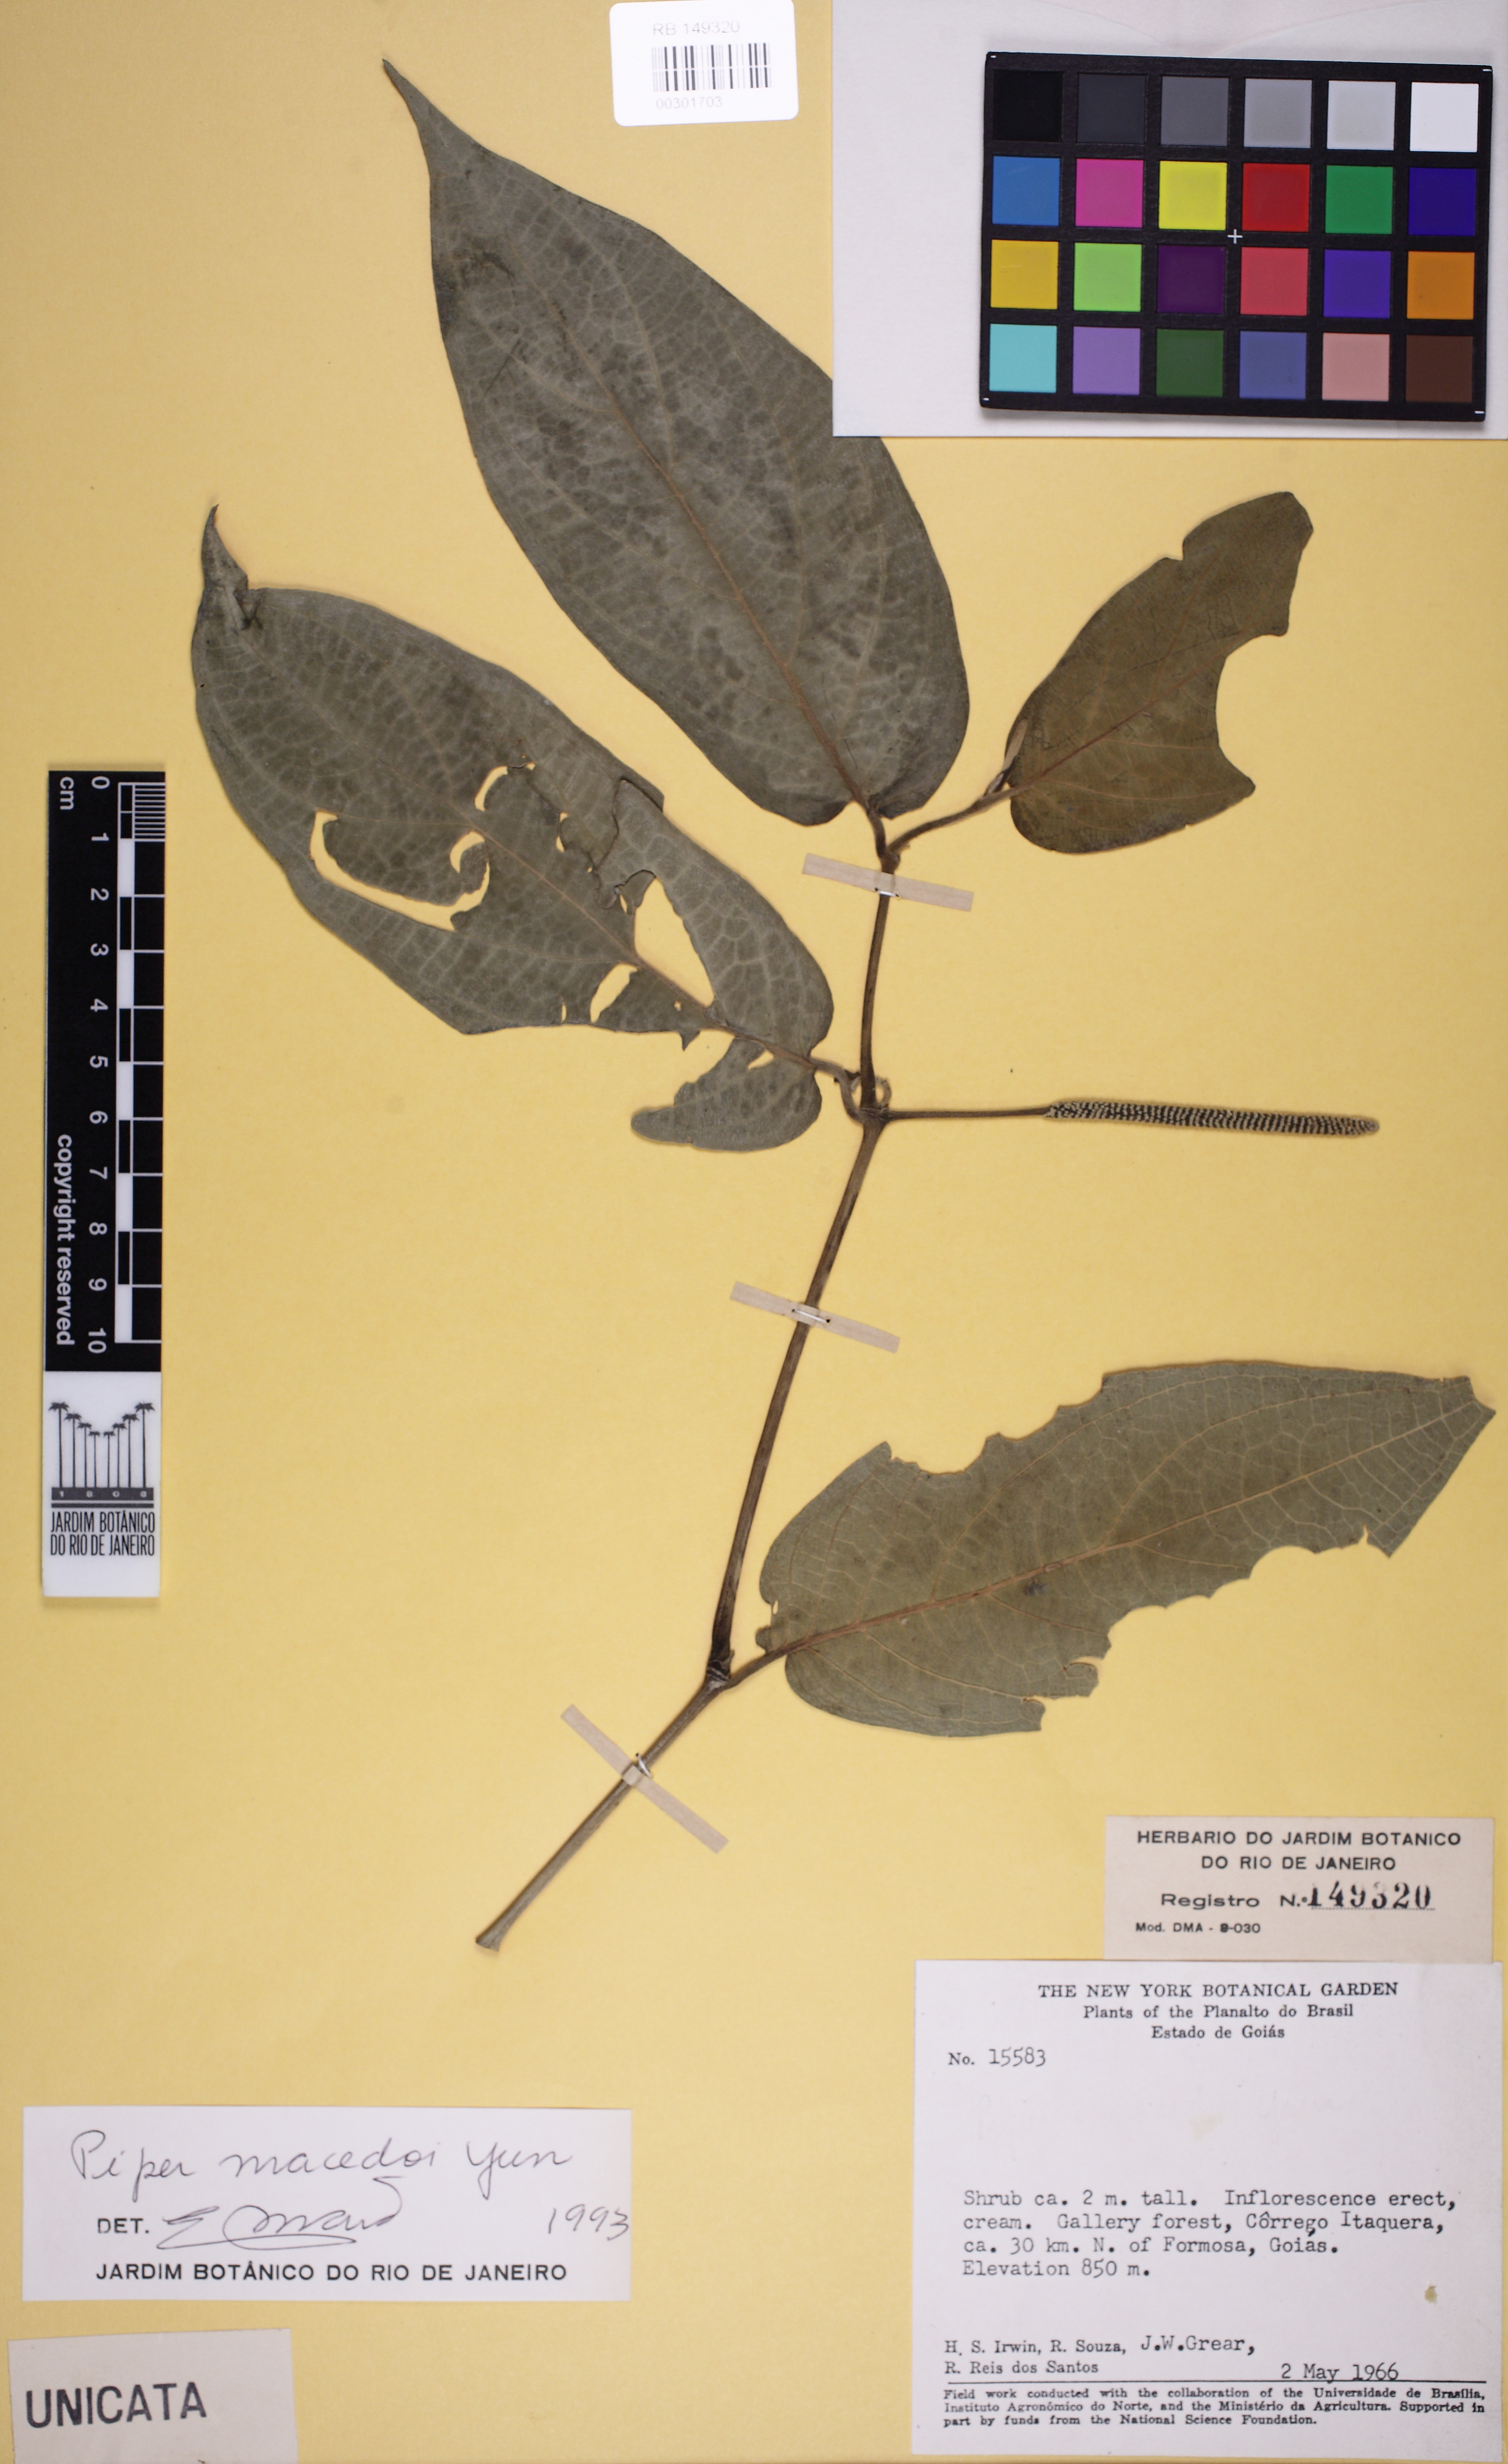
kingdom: Plantae
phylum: Tracheophyta
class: Magnoliopsida
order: Piperales
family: Piperaceae
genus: Piper
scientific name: Piper macedoi
